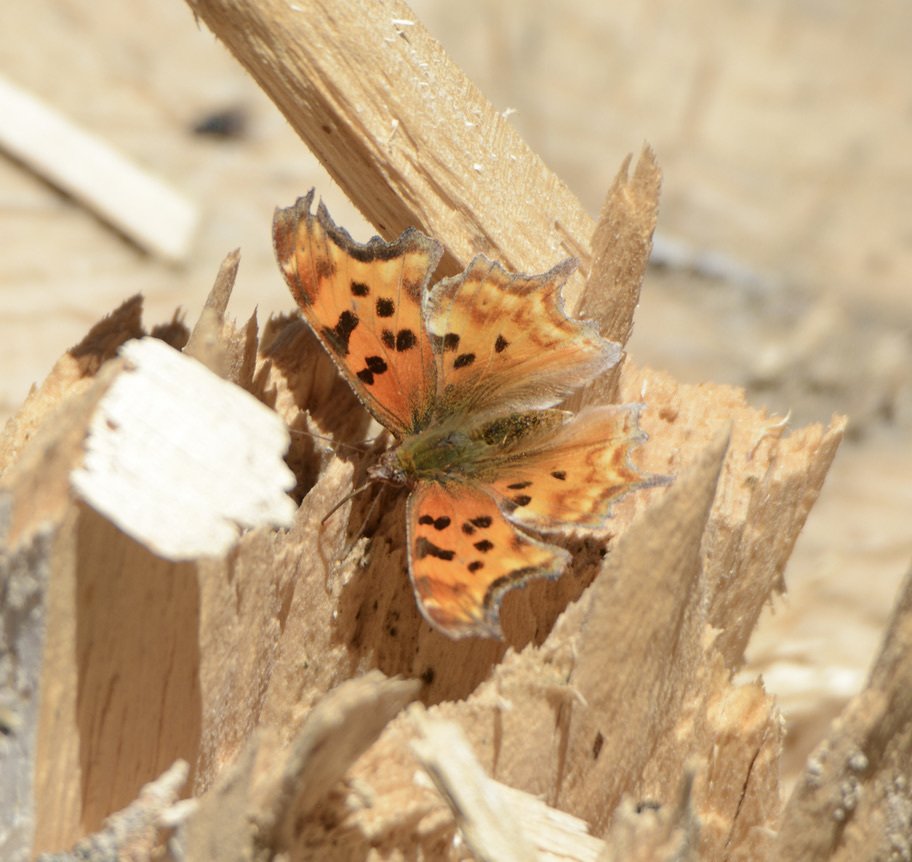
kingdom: Animalia
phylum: Arthropoda
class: Insecta
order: Lepidoptera
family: Nymphalidae
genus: Polygonia
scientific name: Polygonia satyrus
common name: Satyr Comma
